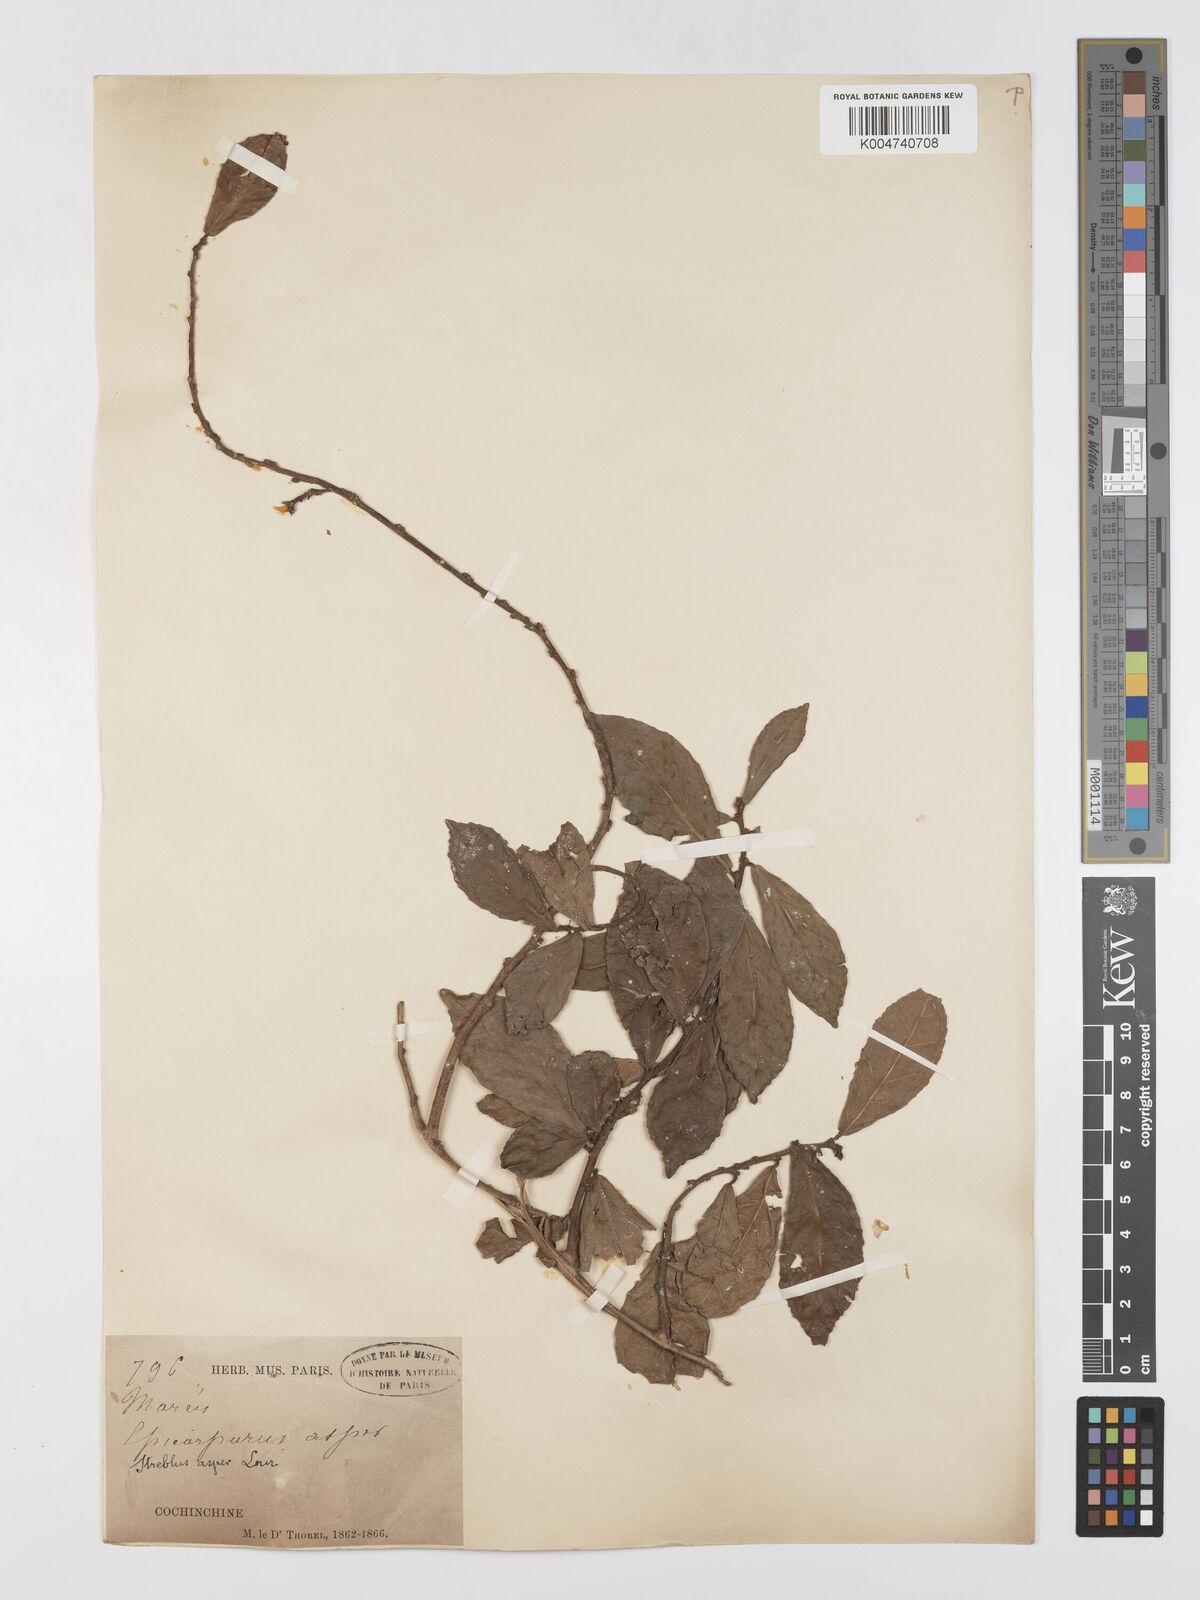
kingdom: Plantae
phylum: Tracheophyta
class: Magnoliopsida
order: Rosales
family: Moraceae
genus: Streblus
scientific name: Streblus asper
